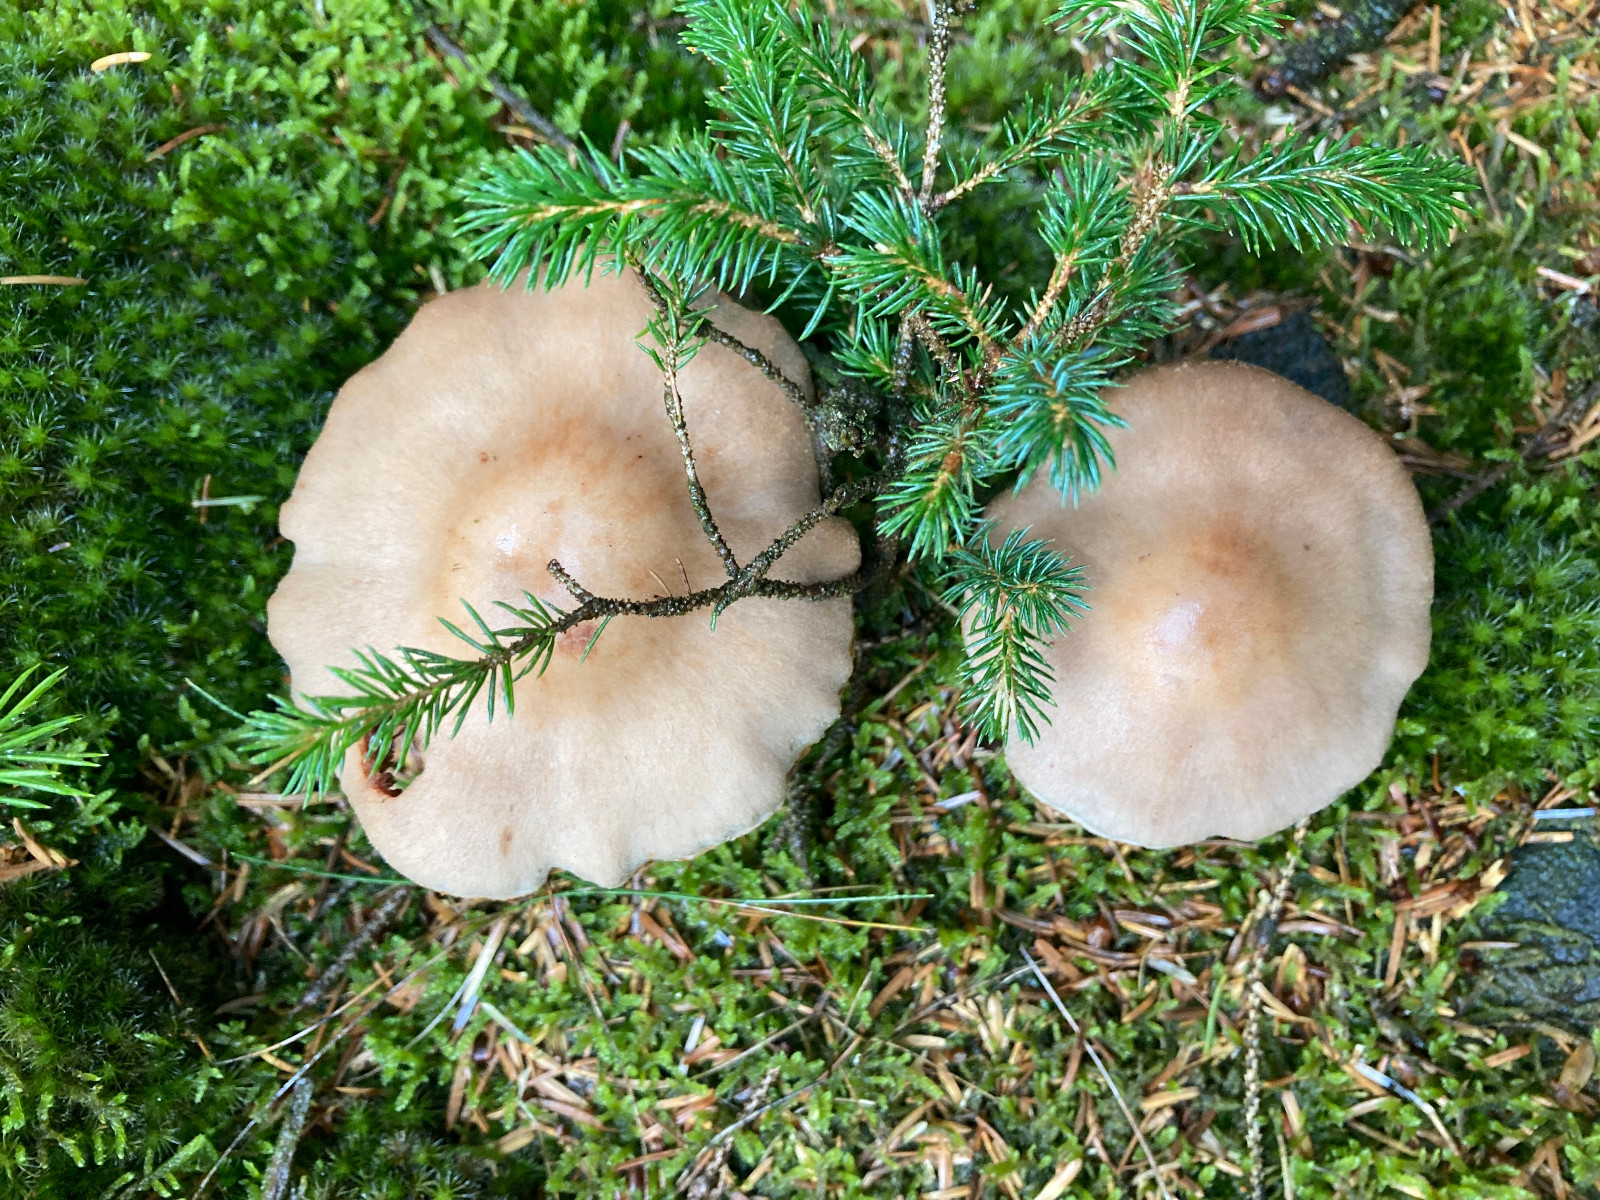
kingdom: Fungi
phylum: Basidiomycota
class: Agaricomycetes
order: Agaricales
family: Cortinariaceae
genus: Cortinarius
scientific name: Cortinarius
